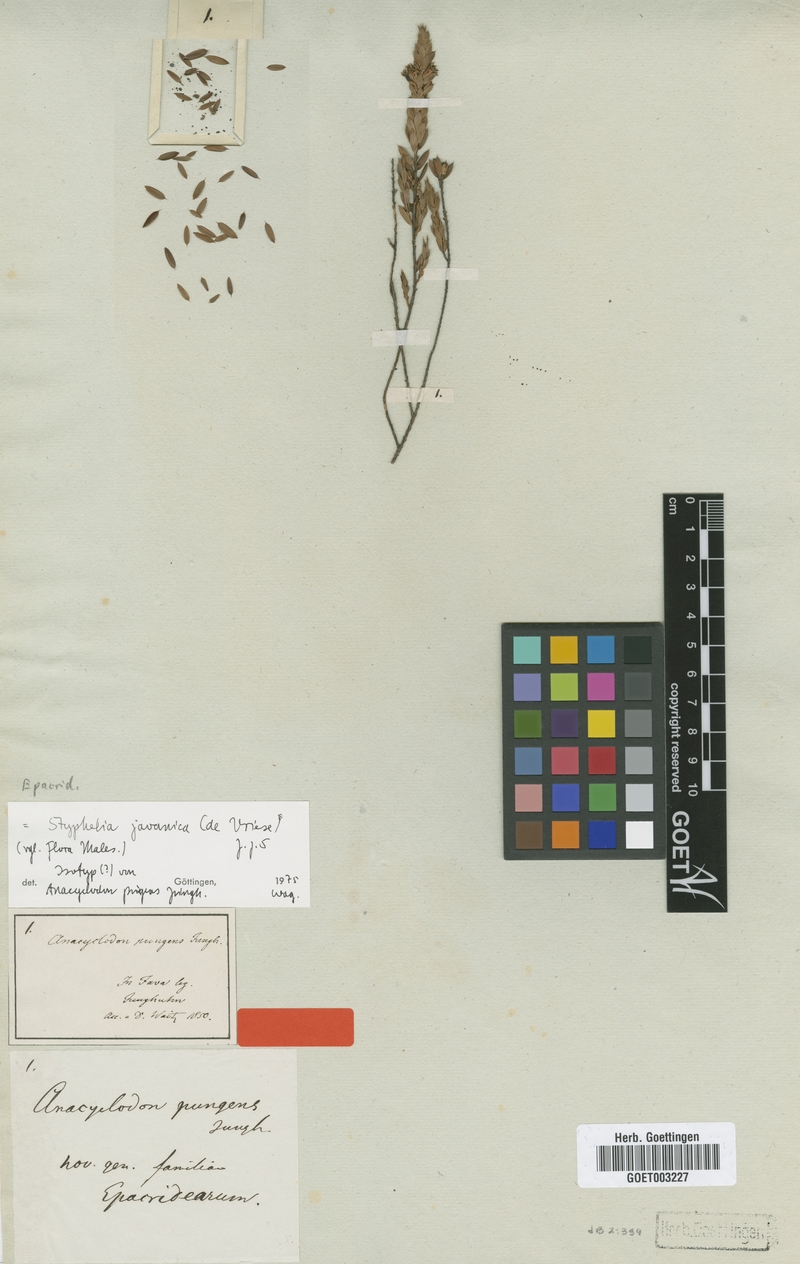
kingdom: Plantae
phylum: Tracheophyta
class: Magnoliopsida
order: Ericales
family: Ericaceae
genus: Styphelia
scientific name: Styphelia javanica
